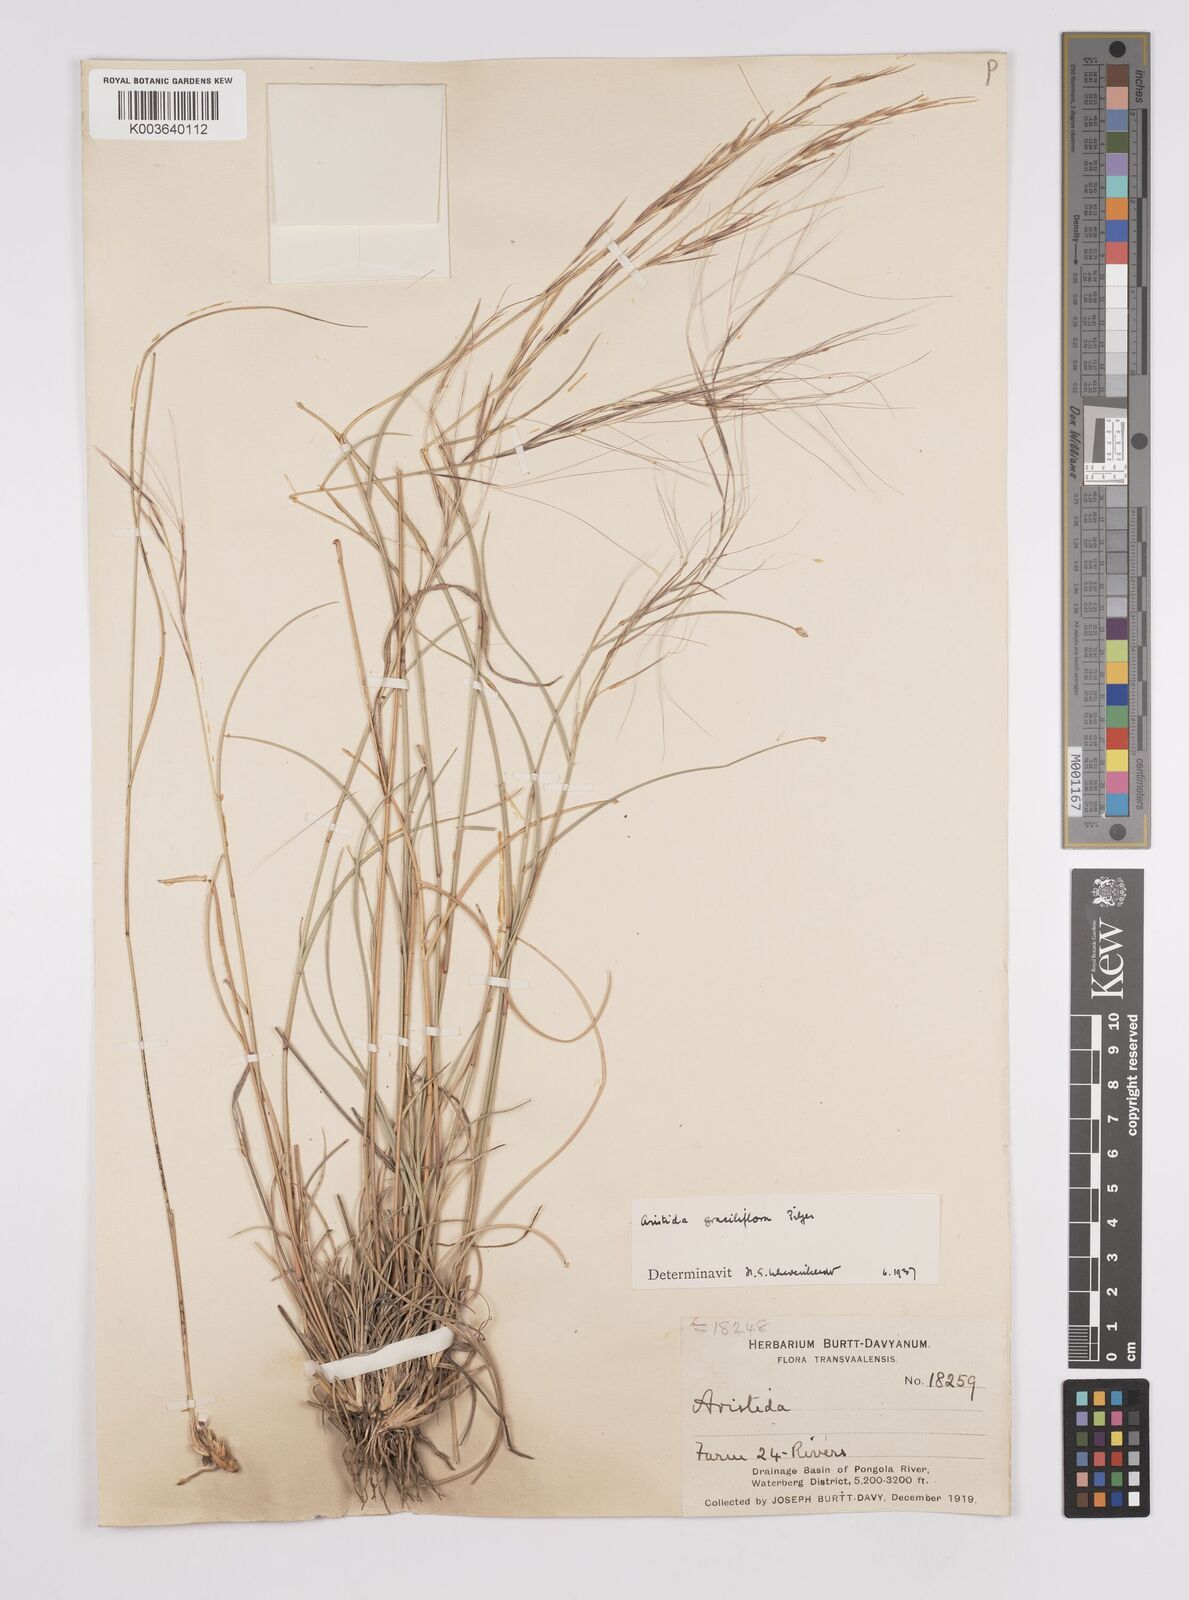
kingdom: Plantae
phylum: Tracheophyta
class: Liliopsida
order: Poales
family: Poaceae
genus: Aristida
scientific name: Aristida stipitata
